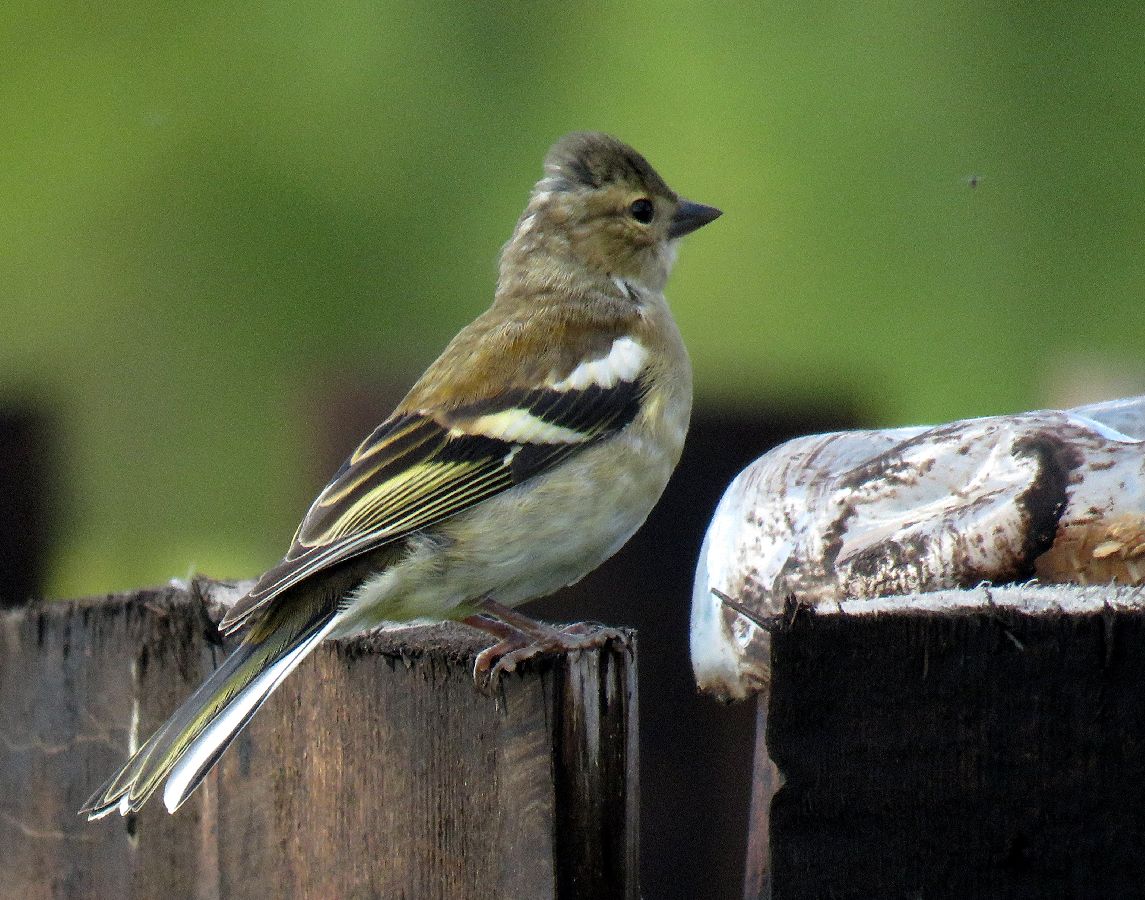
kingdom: Animalia
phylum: Chordata
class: Aves
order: Passeriformes
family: Fringillidae
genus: Fringilla
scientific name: Fringilla coelebs
